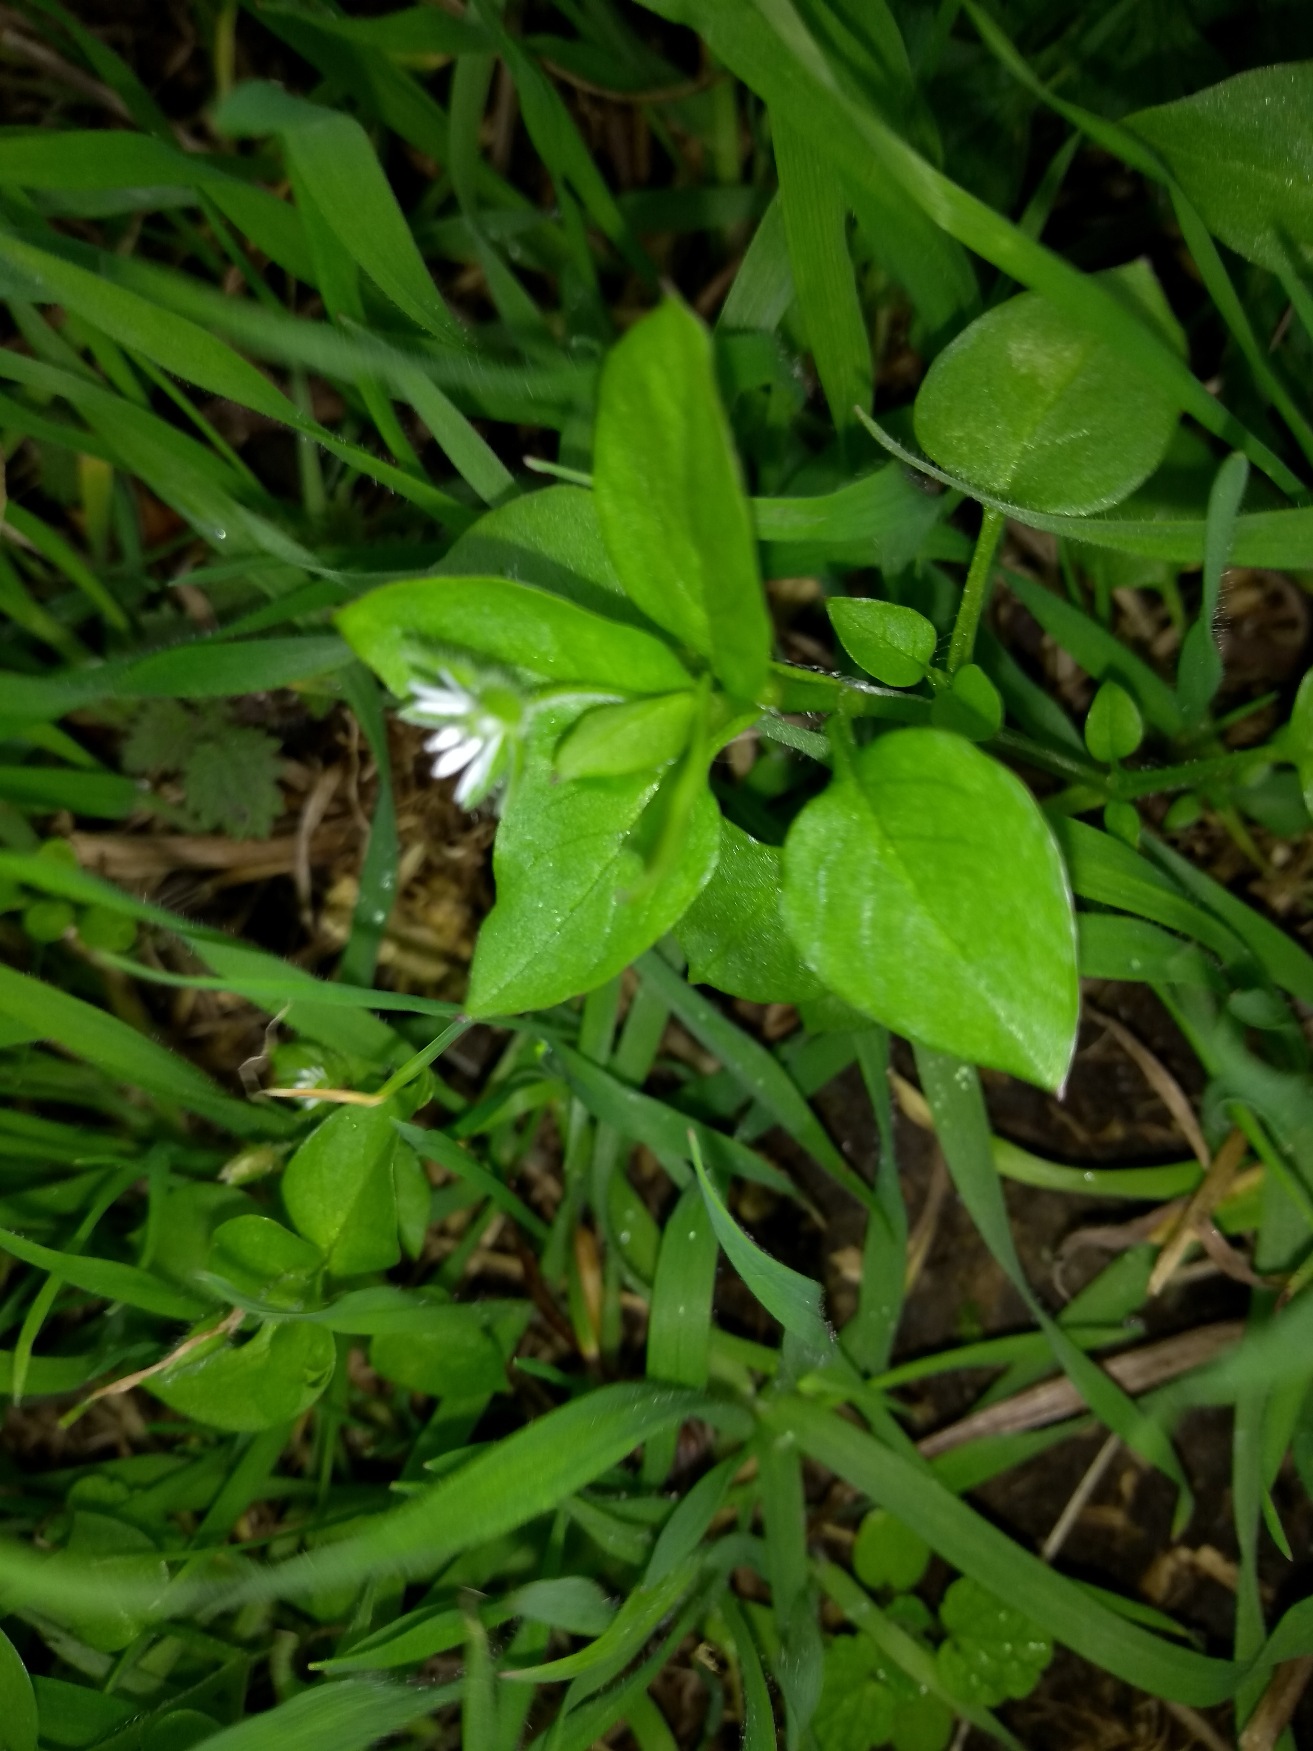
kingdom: Plantae
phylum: Tracheophyta
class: Magnoliopsida
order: Caryophyllales
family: Caryophyllaceae
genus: Stellaria
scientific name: Stellaria media
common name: Almindelig fuglegræs
